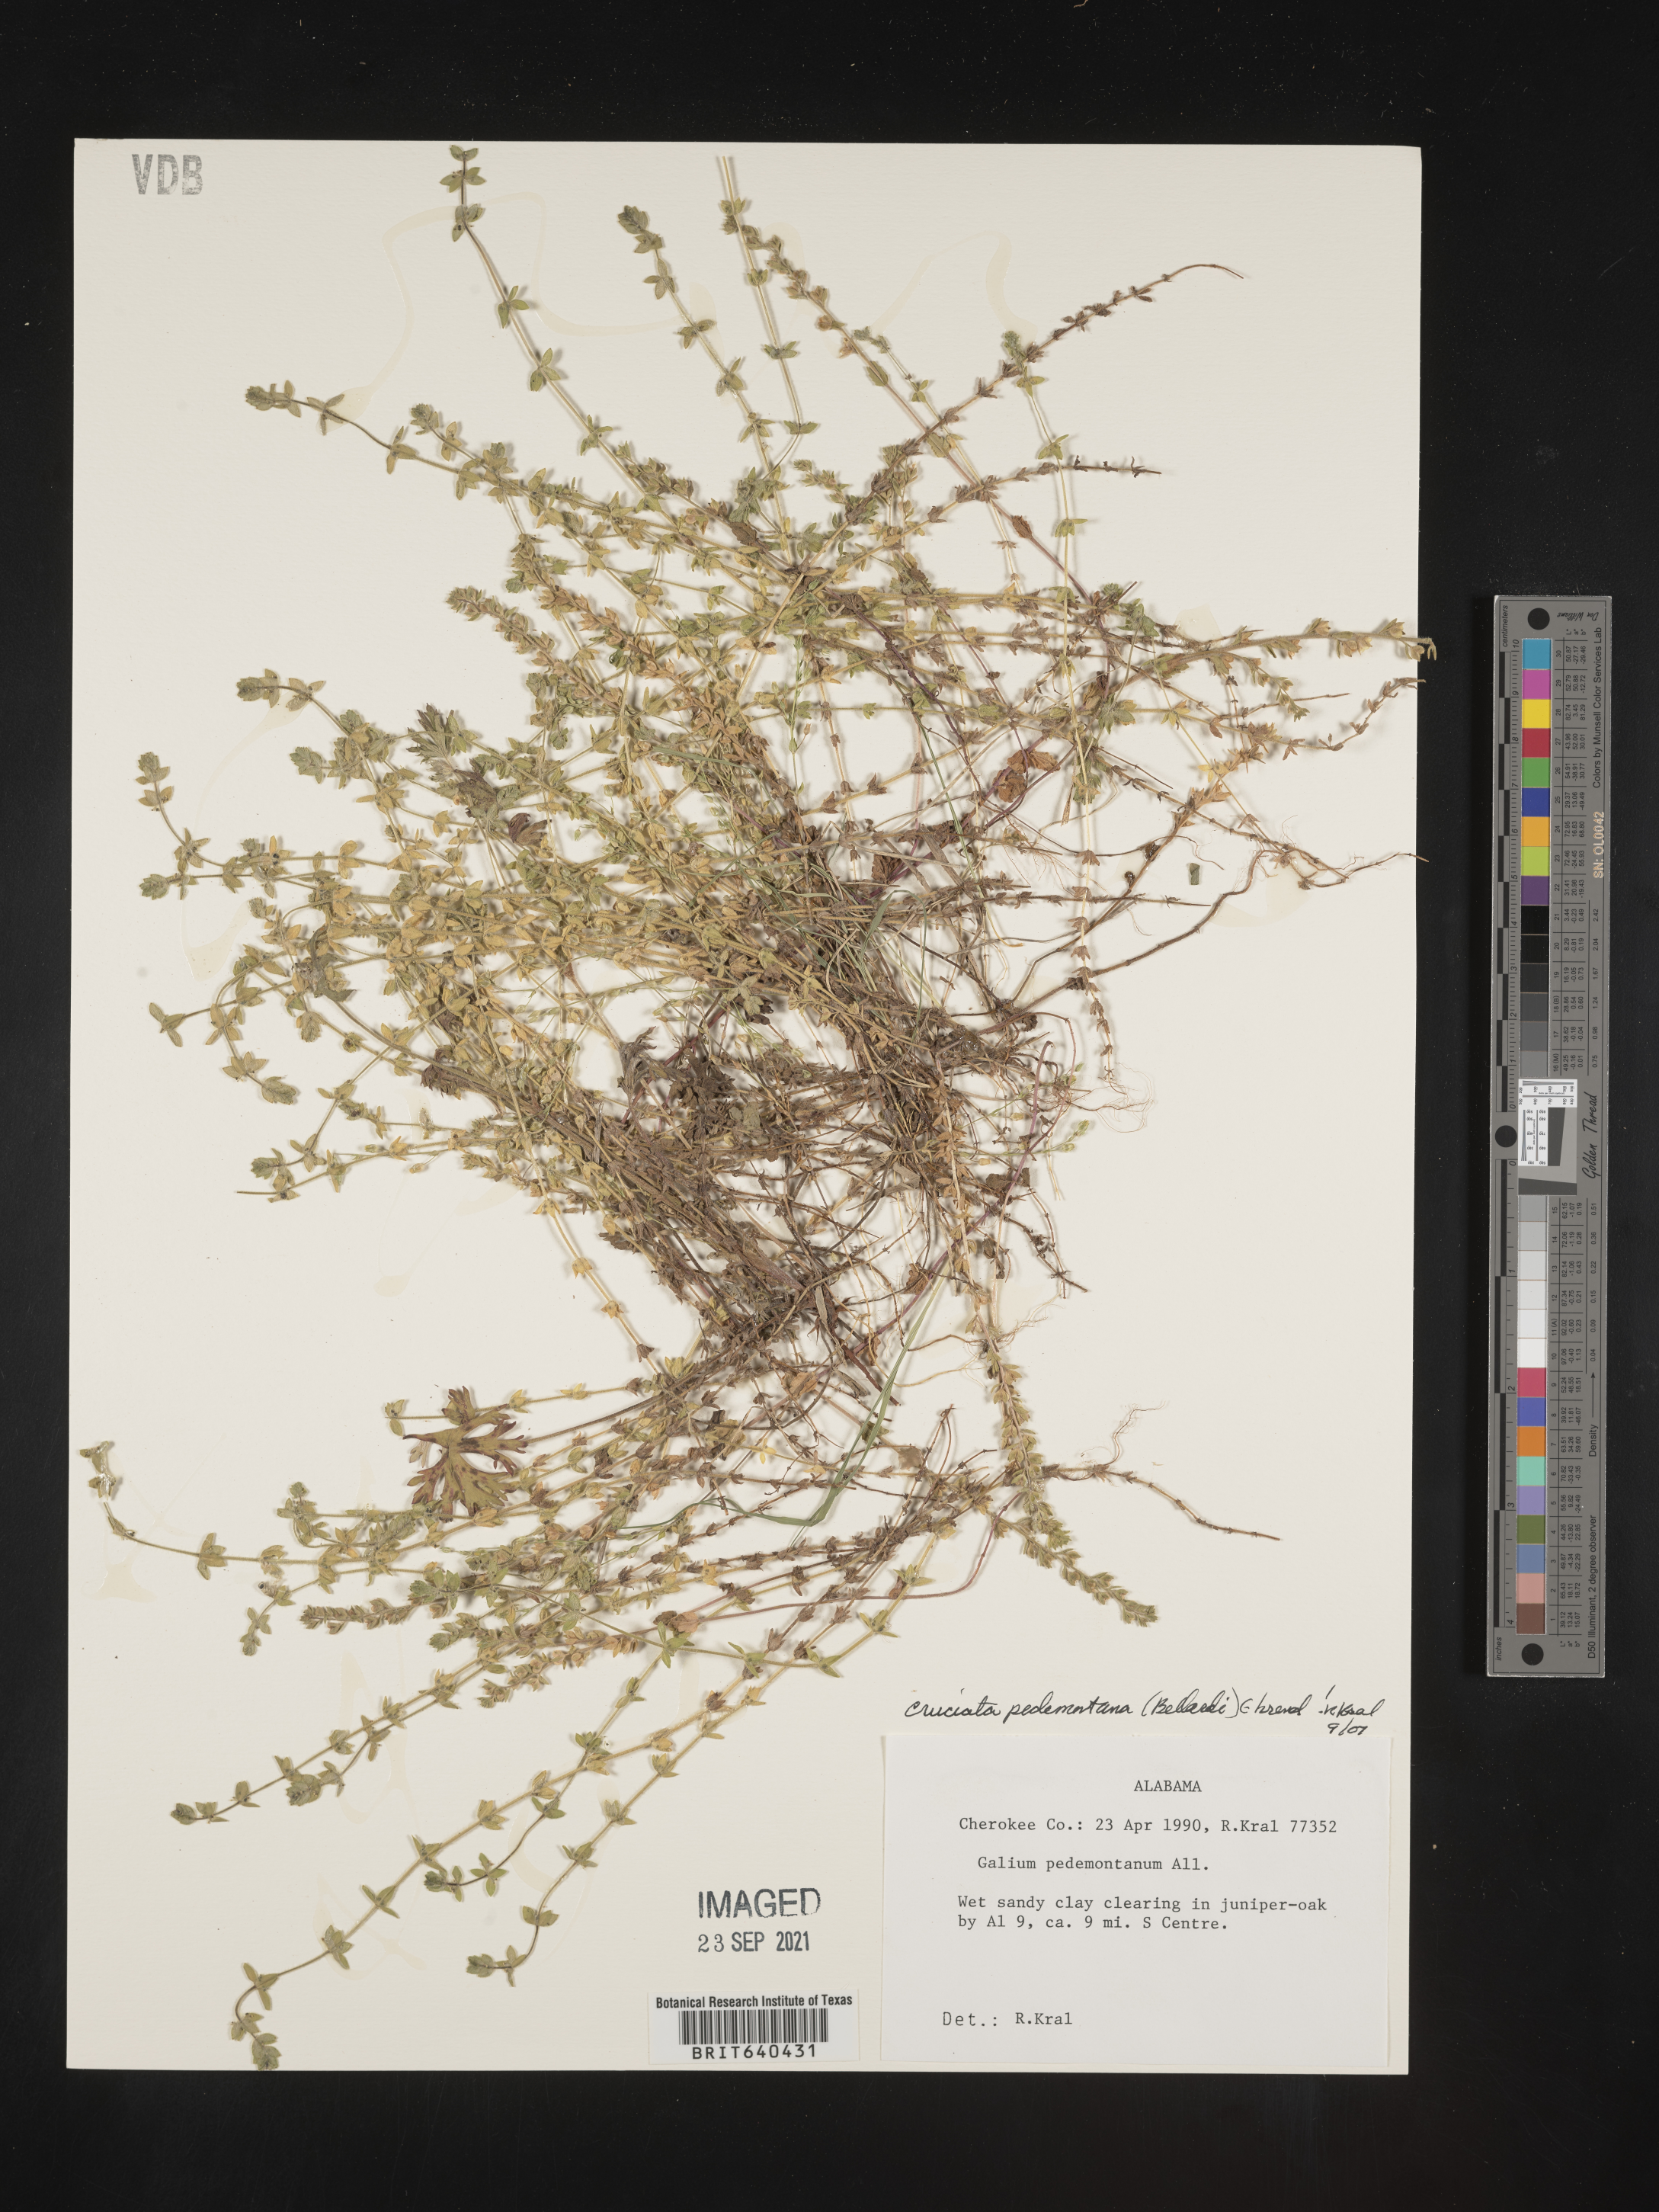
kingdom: Plantae
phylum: Tracheophyta
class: Magnoliopsida
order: Gentianales
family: Rubiaceae
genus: Cruciata
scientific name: Cruciata
